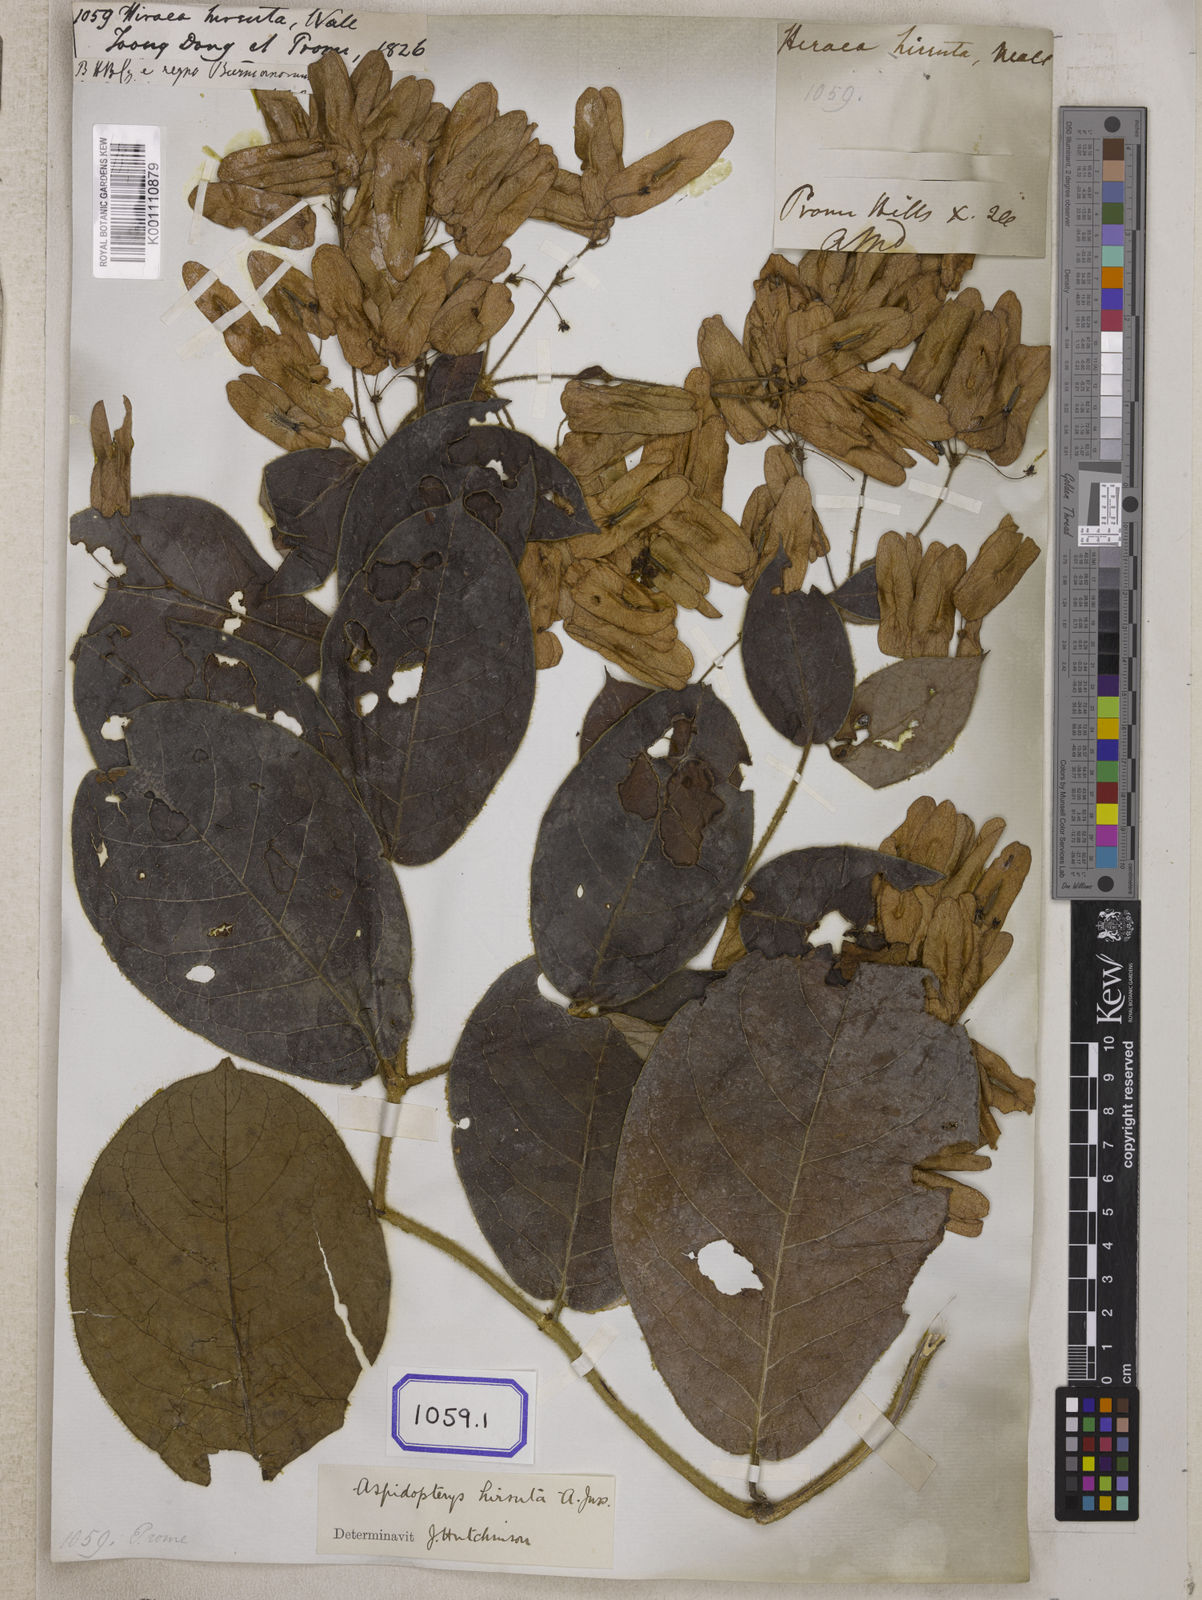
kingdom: Plantae
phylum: Tracheophyta
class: Magnoliopsida
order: Malpighiales
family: Malpighiaceae
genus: Aspidopterys
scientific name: Aspidopterys hirsuta
